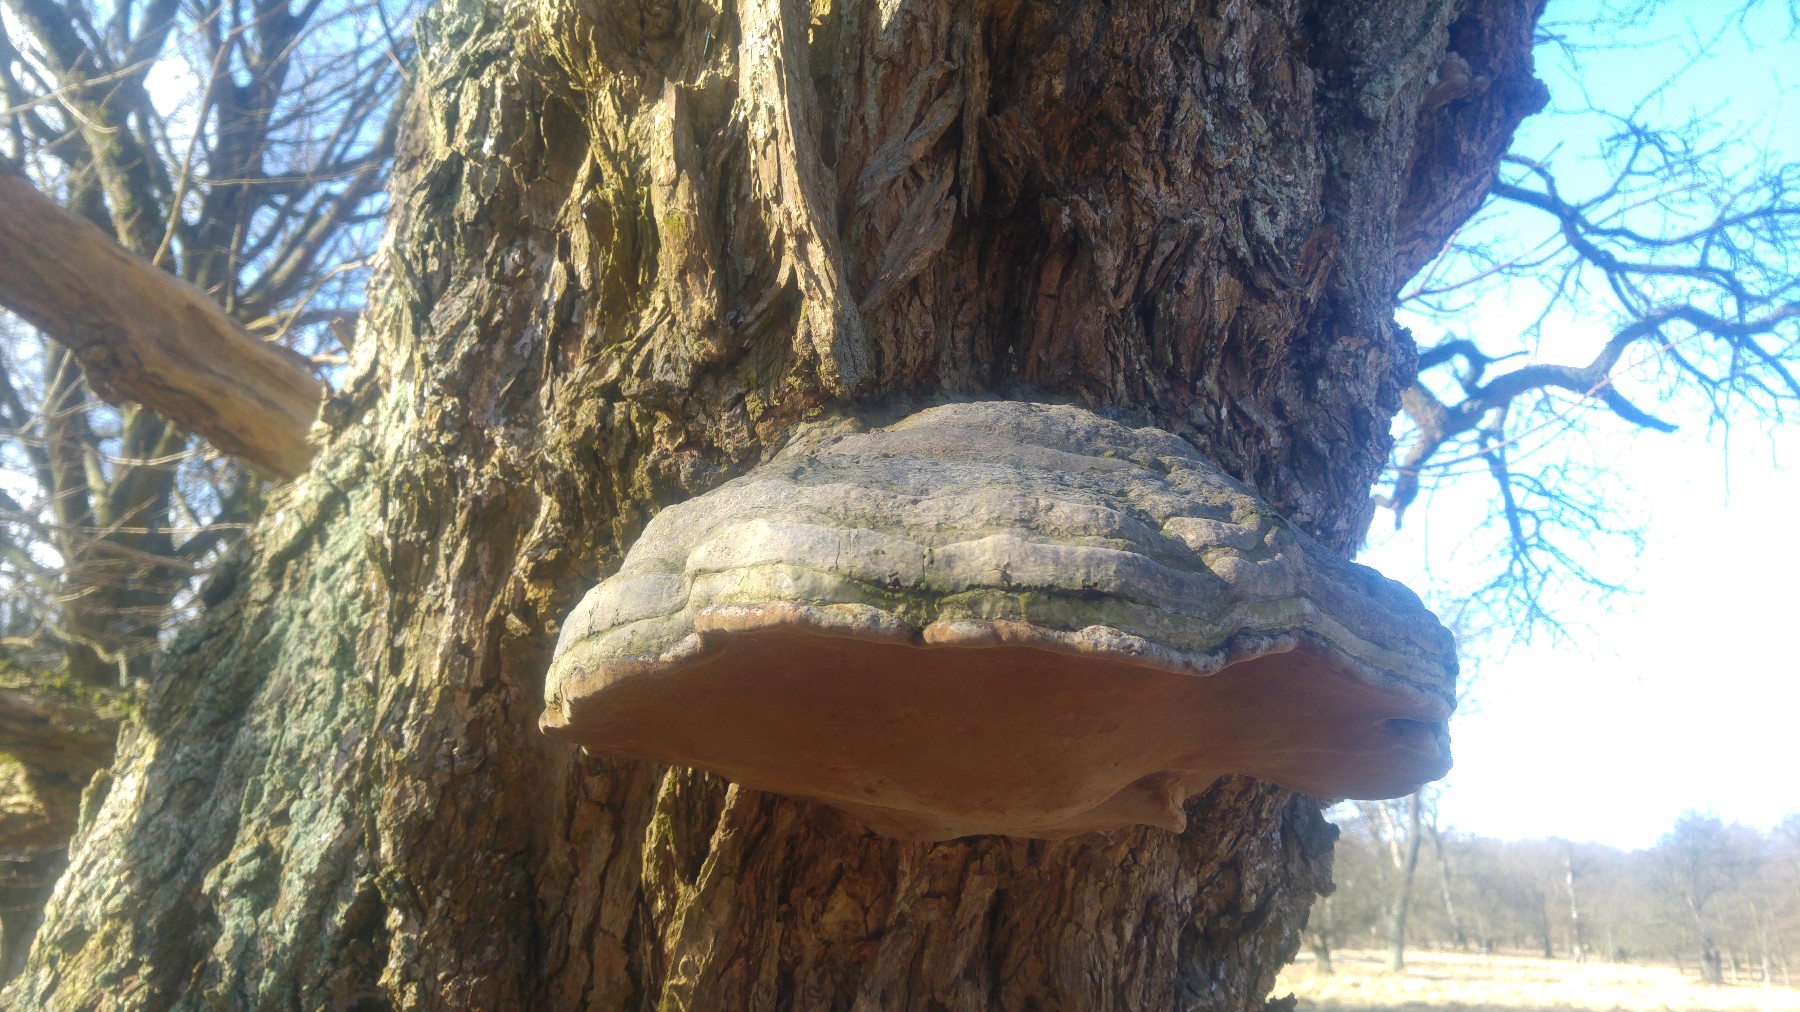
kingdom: Fungi
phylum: Basidiomycota
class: Agaricomycetes
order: Polyporales
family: Polyporaceae
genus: Fomes
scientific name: Fomes fomentarius
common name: tøndersvamp
